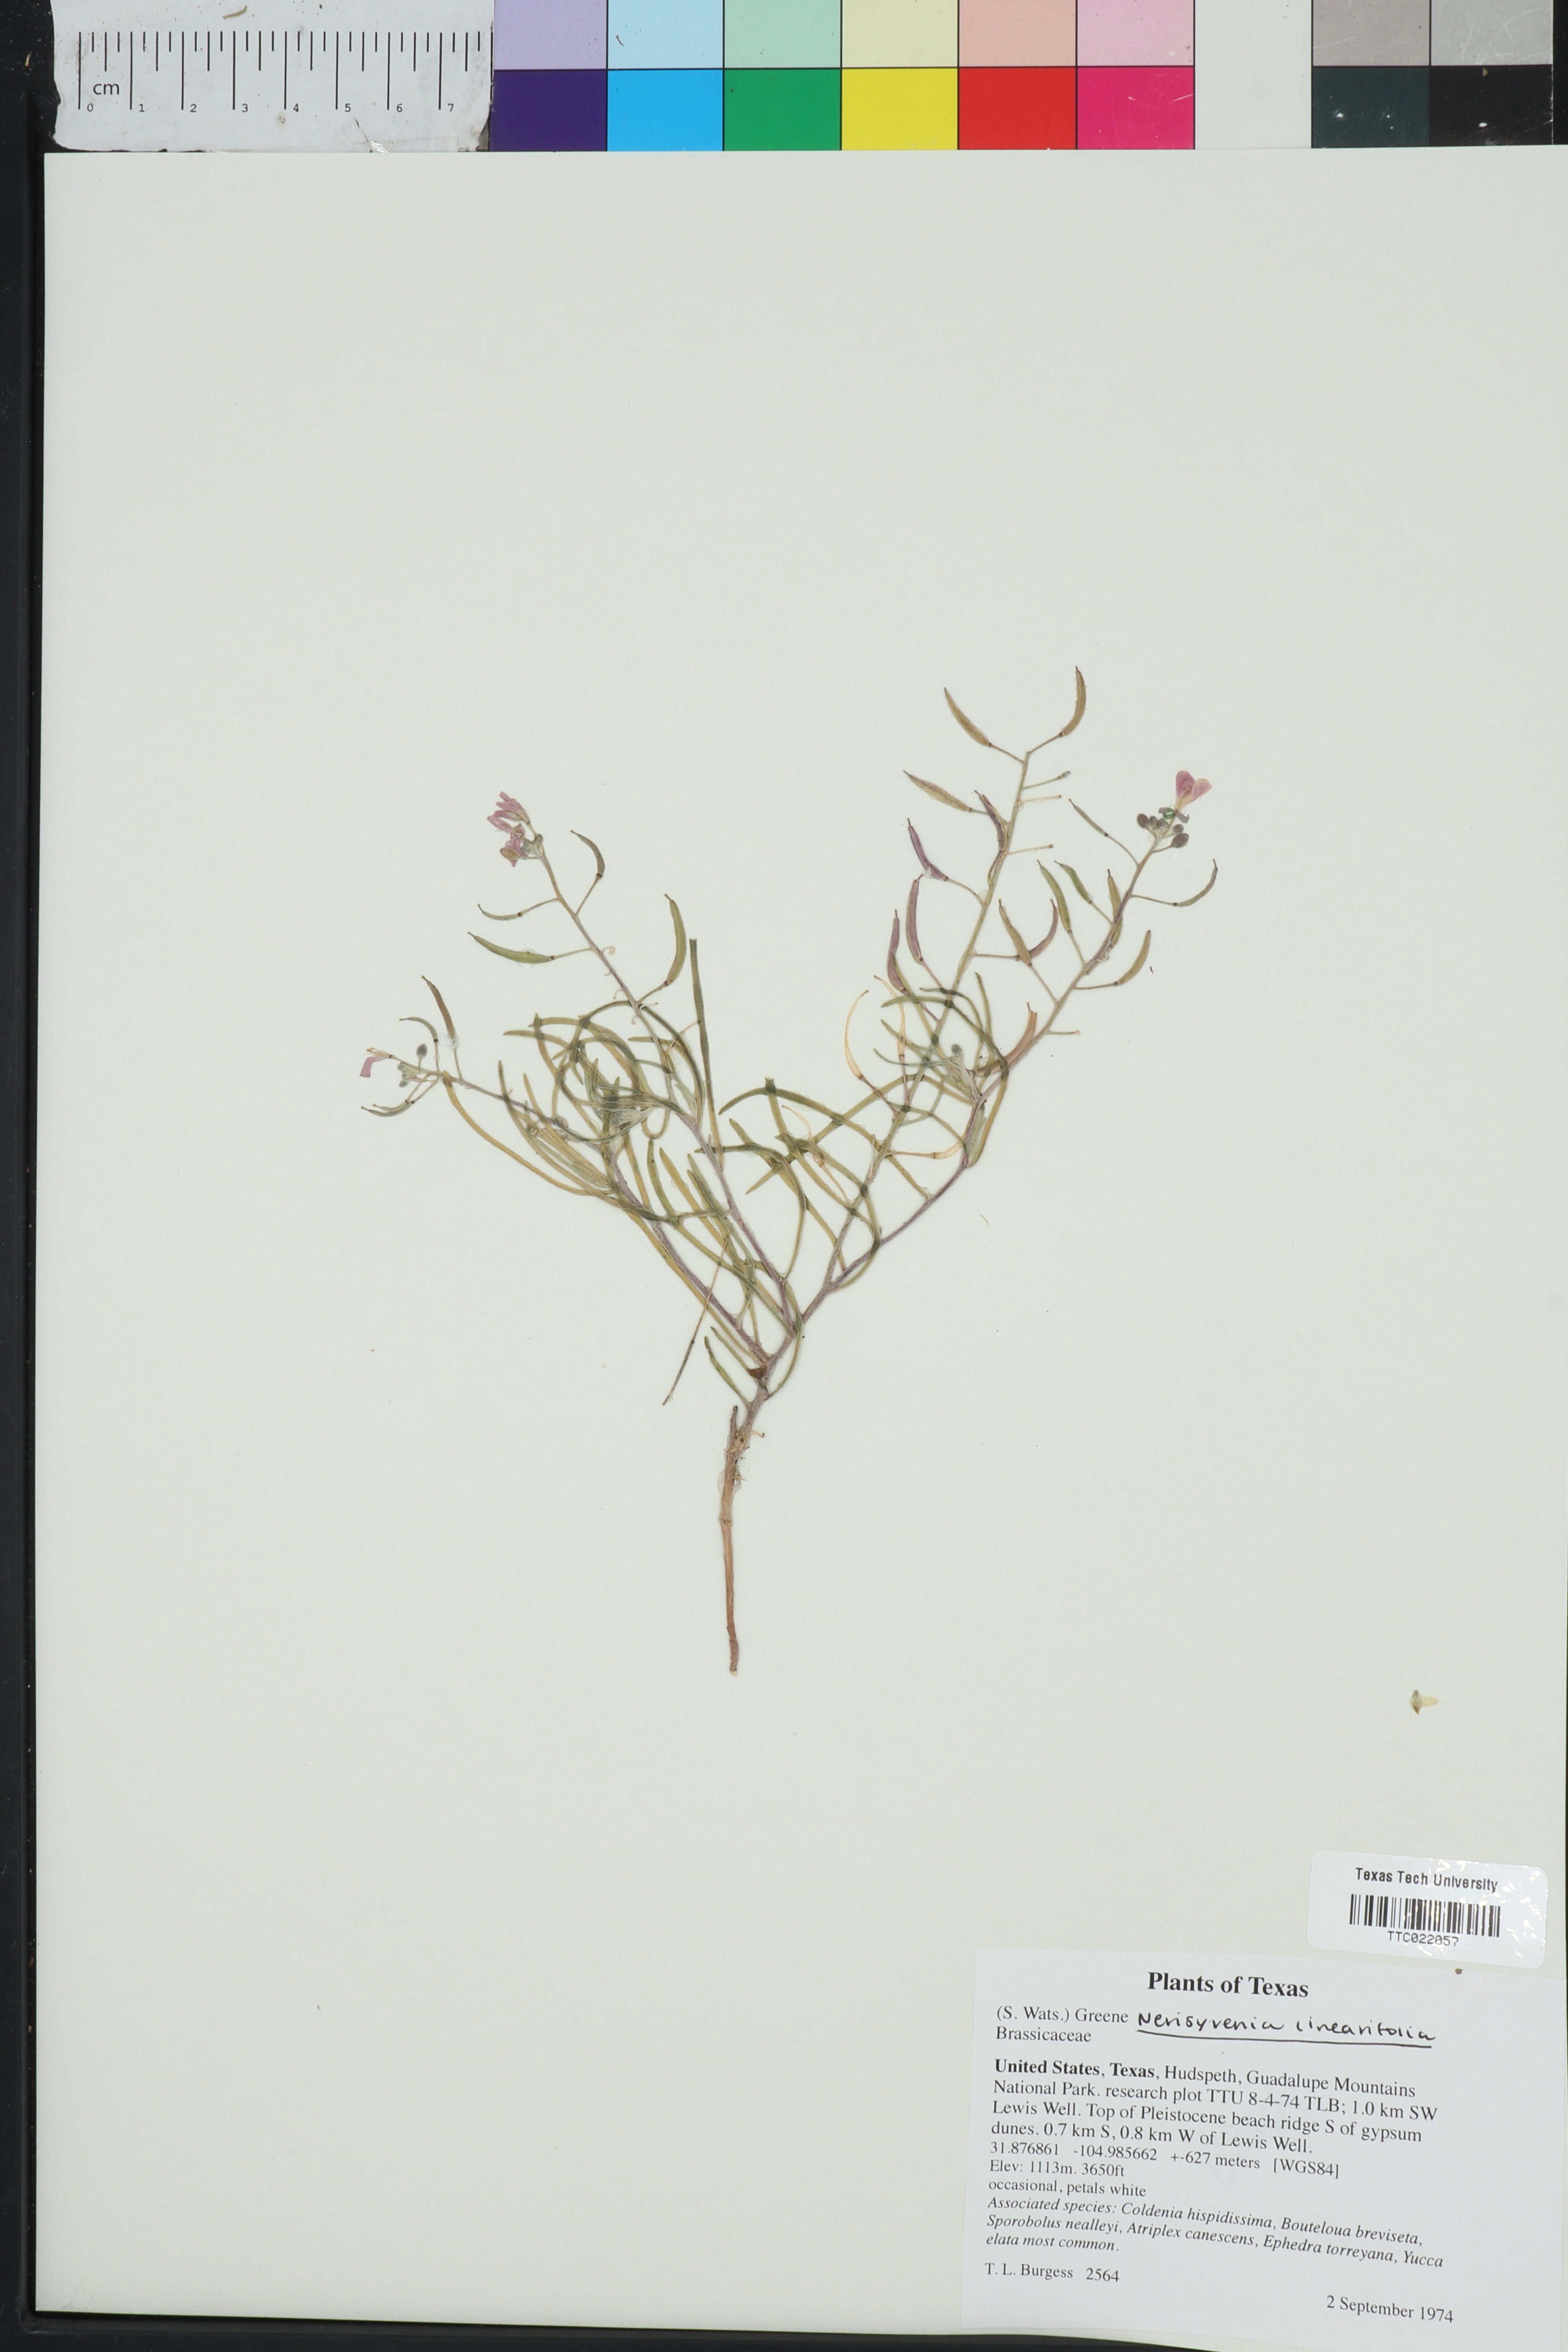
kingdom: Plantae
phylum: Tracheophyta
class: Magnoliopsida
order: Brassicales
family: Brassicaceae
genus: Nerisyrenia
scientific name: Nerisyrenia linearifolia
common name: White sands fan mustard
